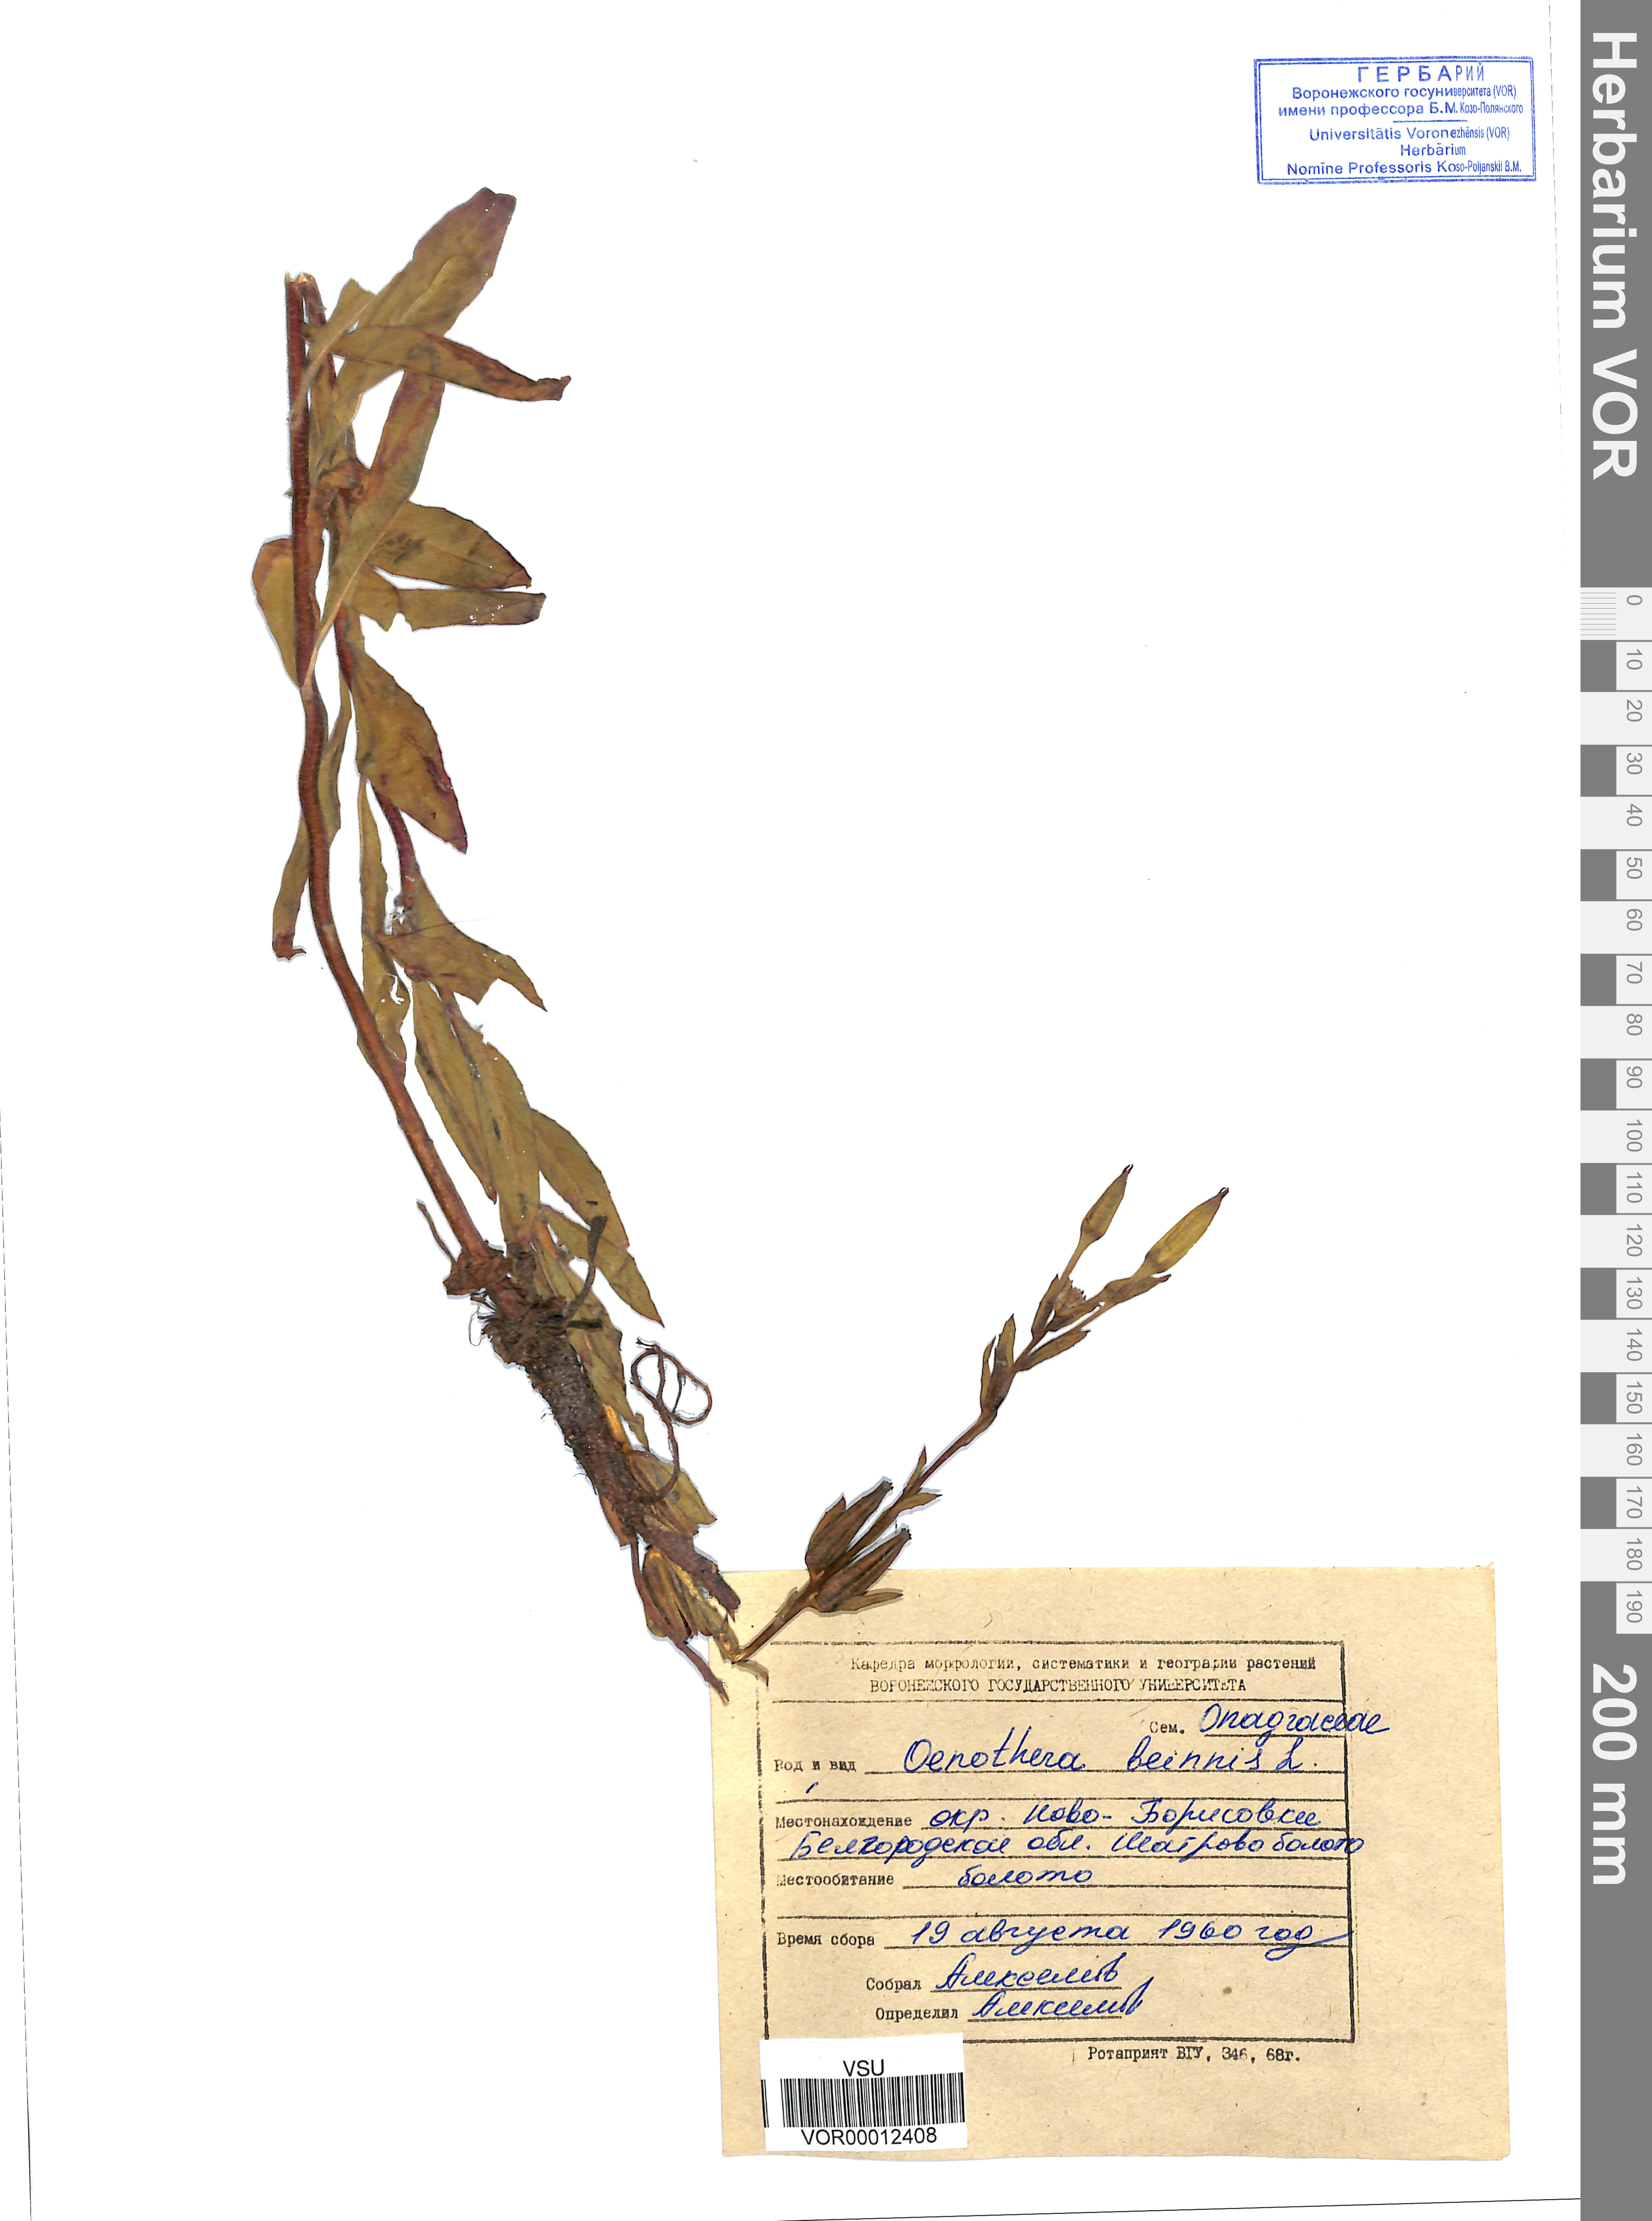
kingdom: Plantae
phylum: Tracheophyta
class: Magnoliopsida
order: Myrtales
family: Onagraceae
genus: Oenothera
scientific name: Oenothera biennis
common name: Common evening-primrose
